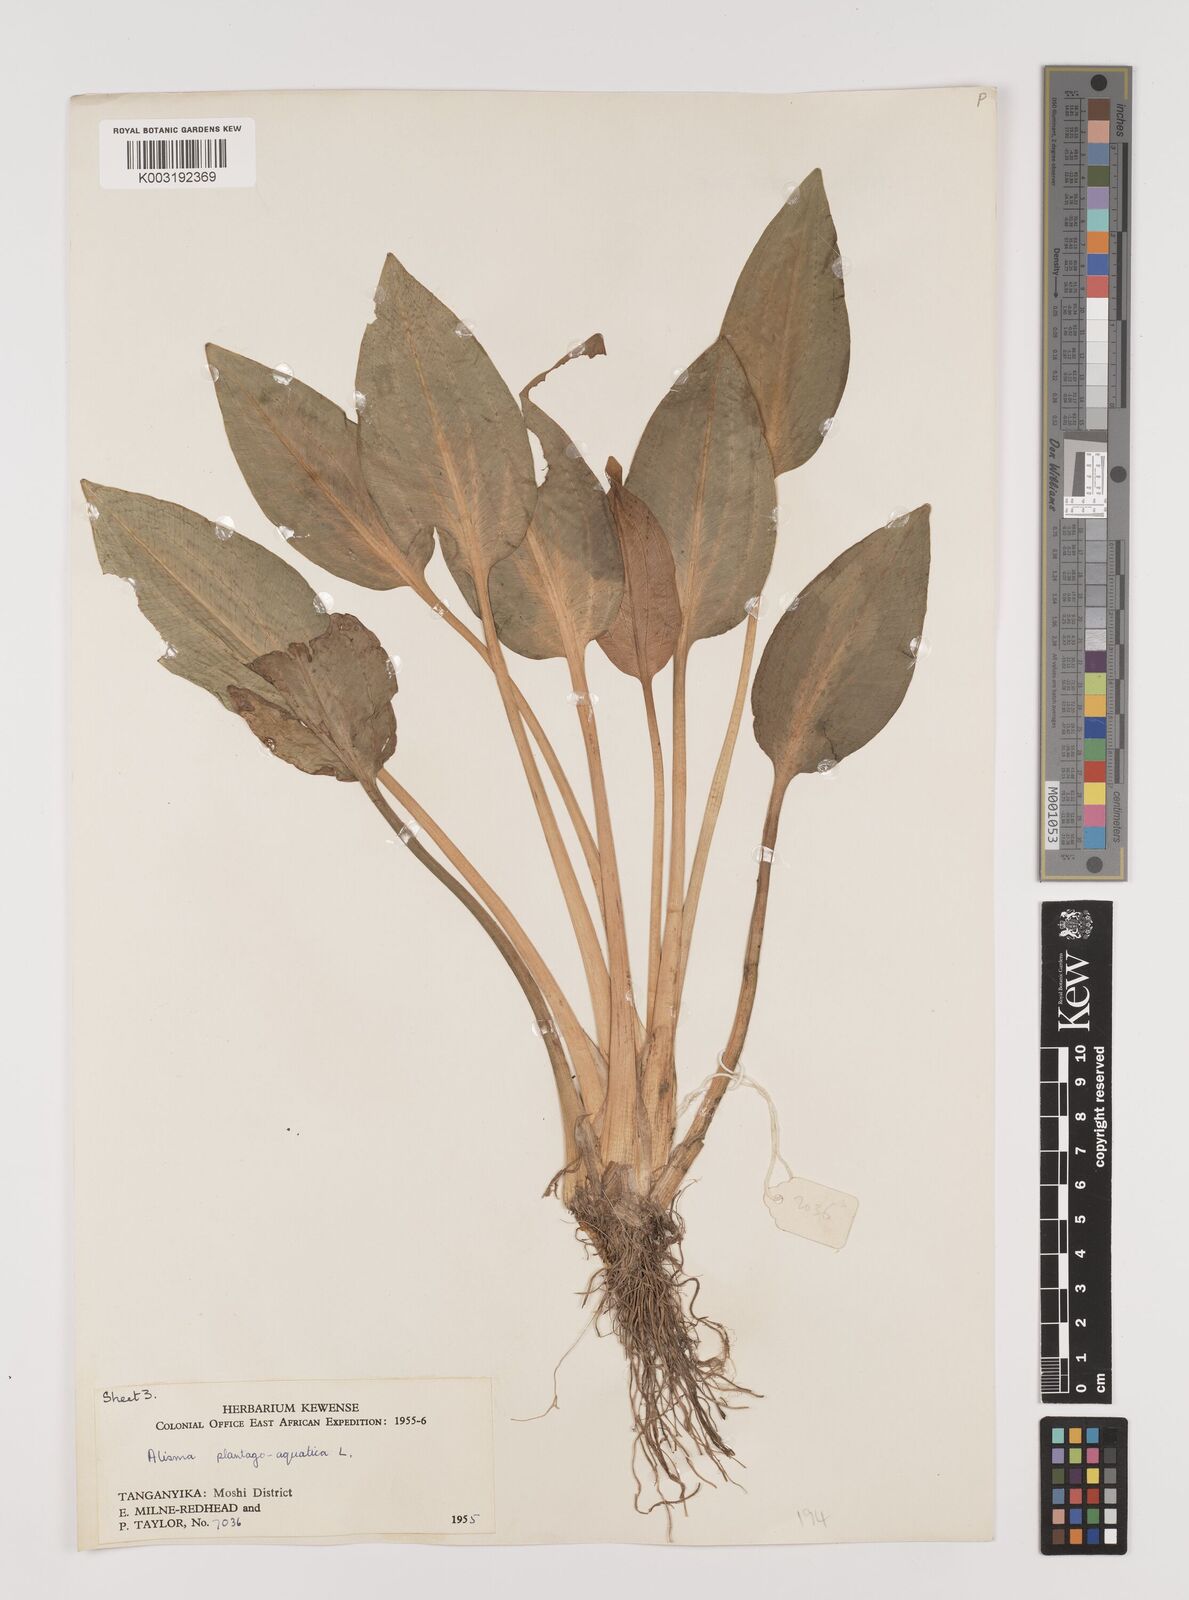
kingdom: Plantae
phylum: Tracheophyta
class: Liliopsida
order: Alismatales
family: Alismataceae
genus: Alisma
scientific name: Alisma plantago-aquatica
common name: Water-plantain
